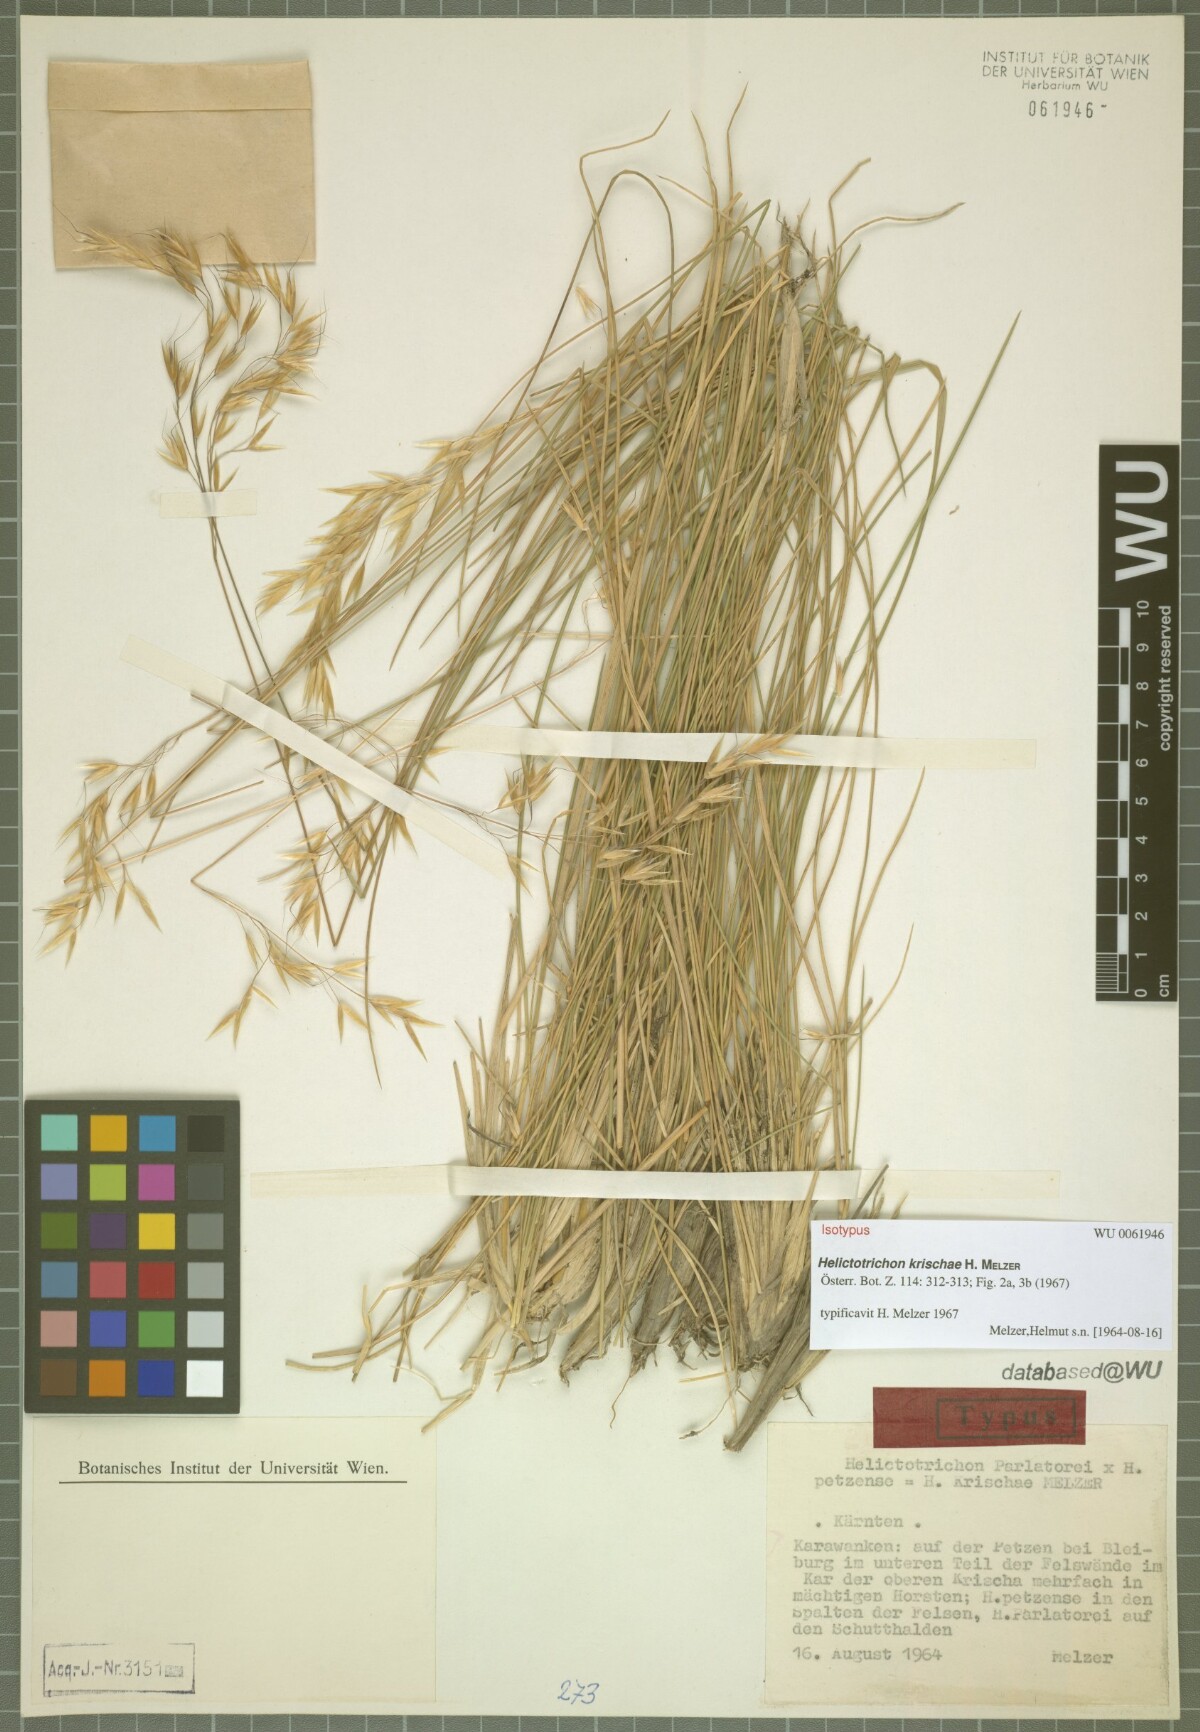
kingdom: Plantae
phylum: Tracheophyta
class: Liliopsida
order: Poales
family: Poaceae
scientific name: Poaceae
